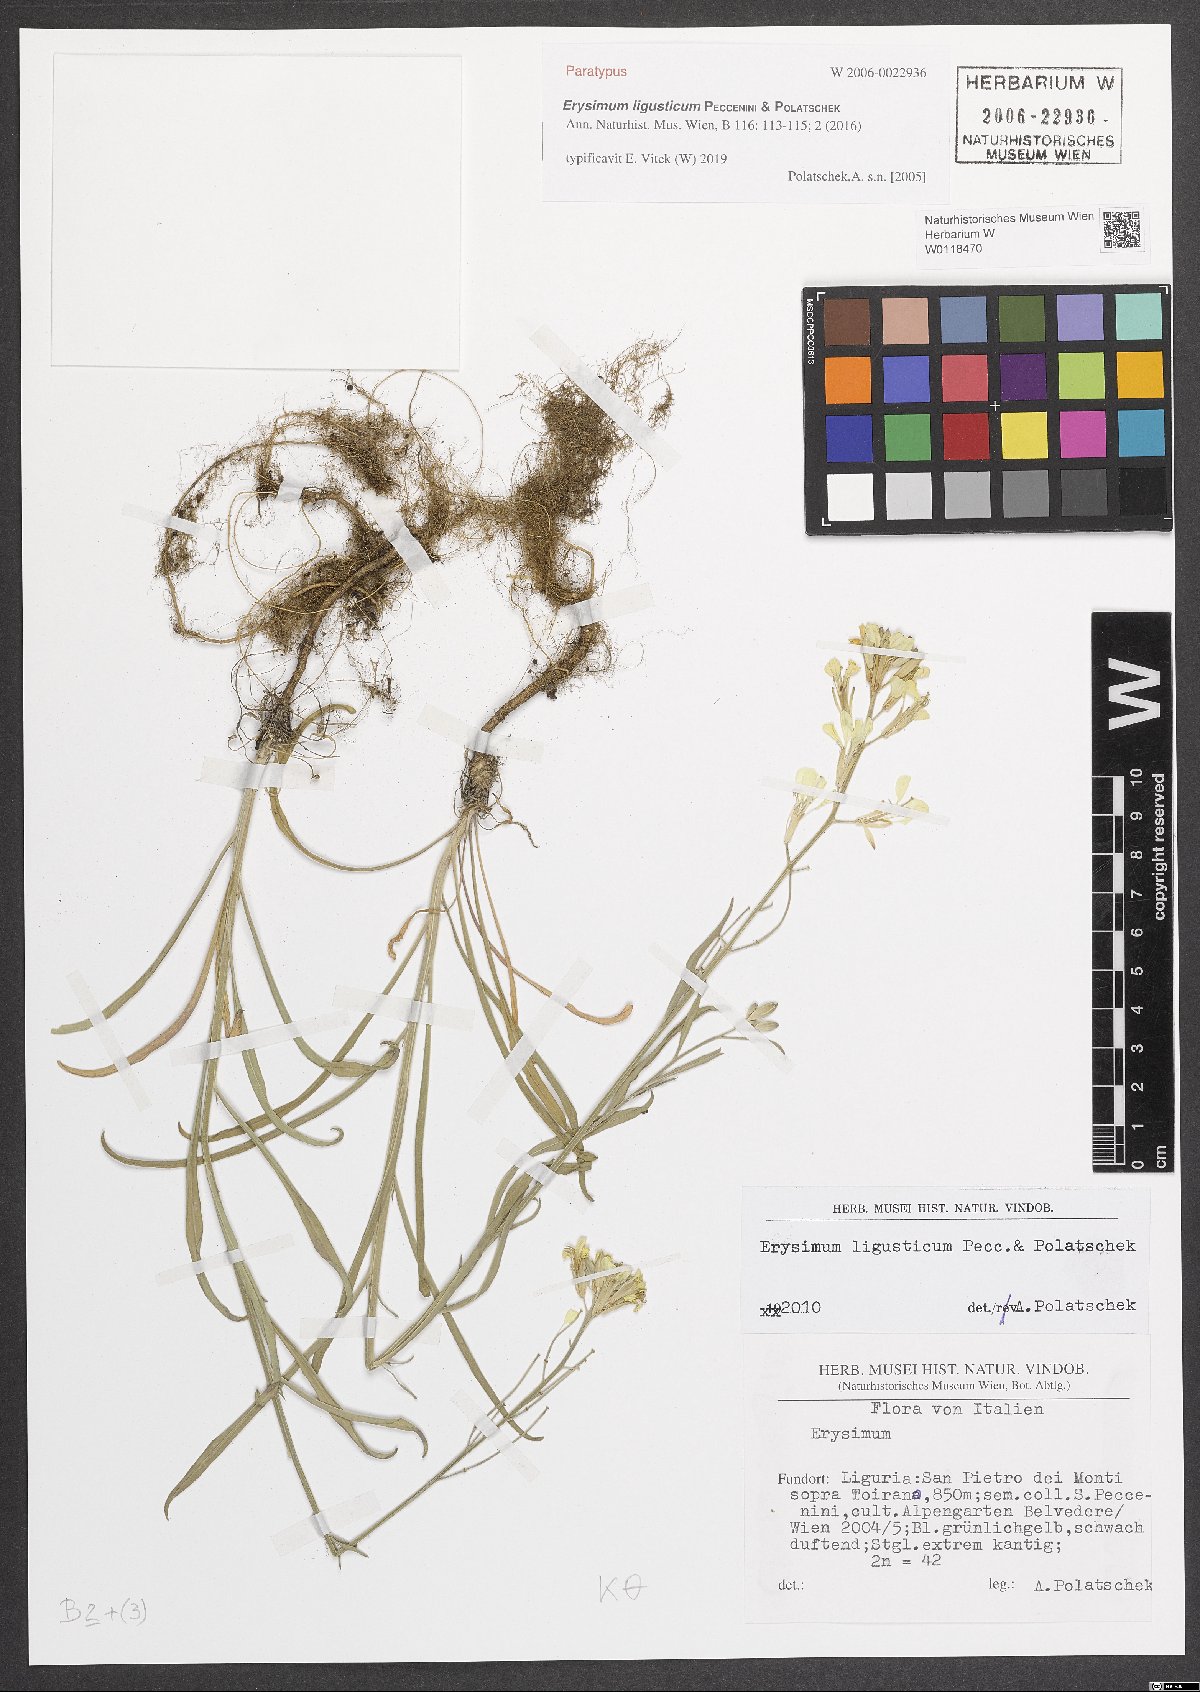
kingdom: Plantae
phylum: Tracheophyta
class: Magnoliopsida
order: Brassicales
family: Brassicaceae
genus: Erysimum
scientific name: Erysimum ligusticum
